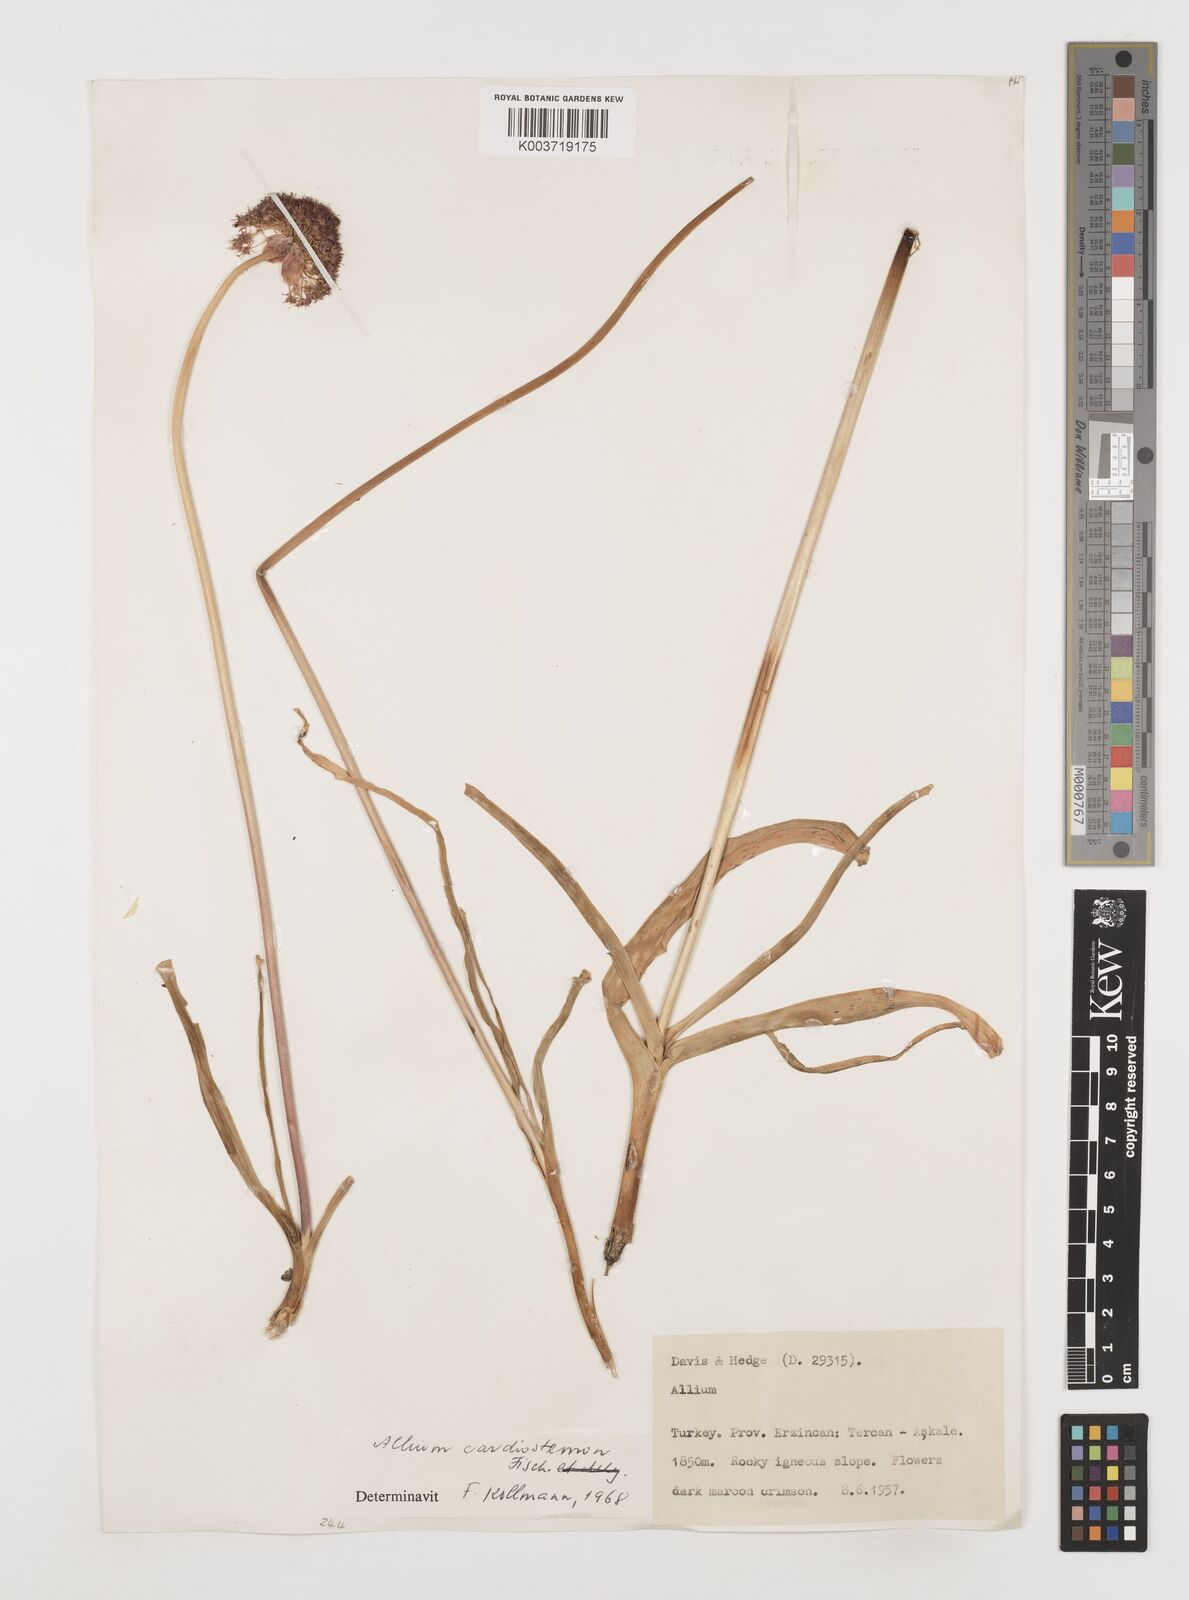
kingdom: Plantae
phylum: Tracheophyta
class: Liliopsida
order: Asparagales
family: Amaryllidaceae
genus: Allium
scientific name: Allium cardiostemon
